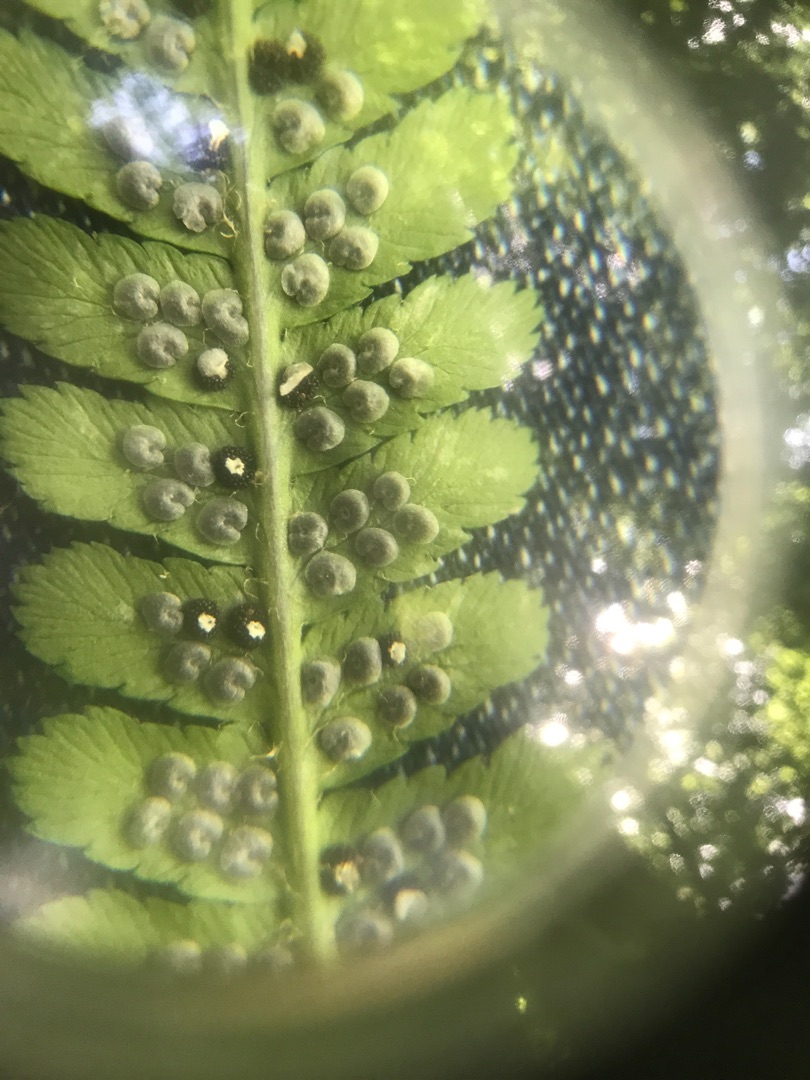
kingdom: Plantae
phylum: Tracheophyta
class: Polypodiopsida
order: Polypodiales
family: Dryopteridaceae
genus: Dryopteris
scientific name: Dryopteris filix-mas
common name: Almindelig mangeløv
